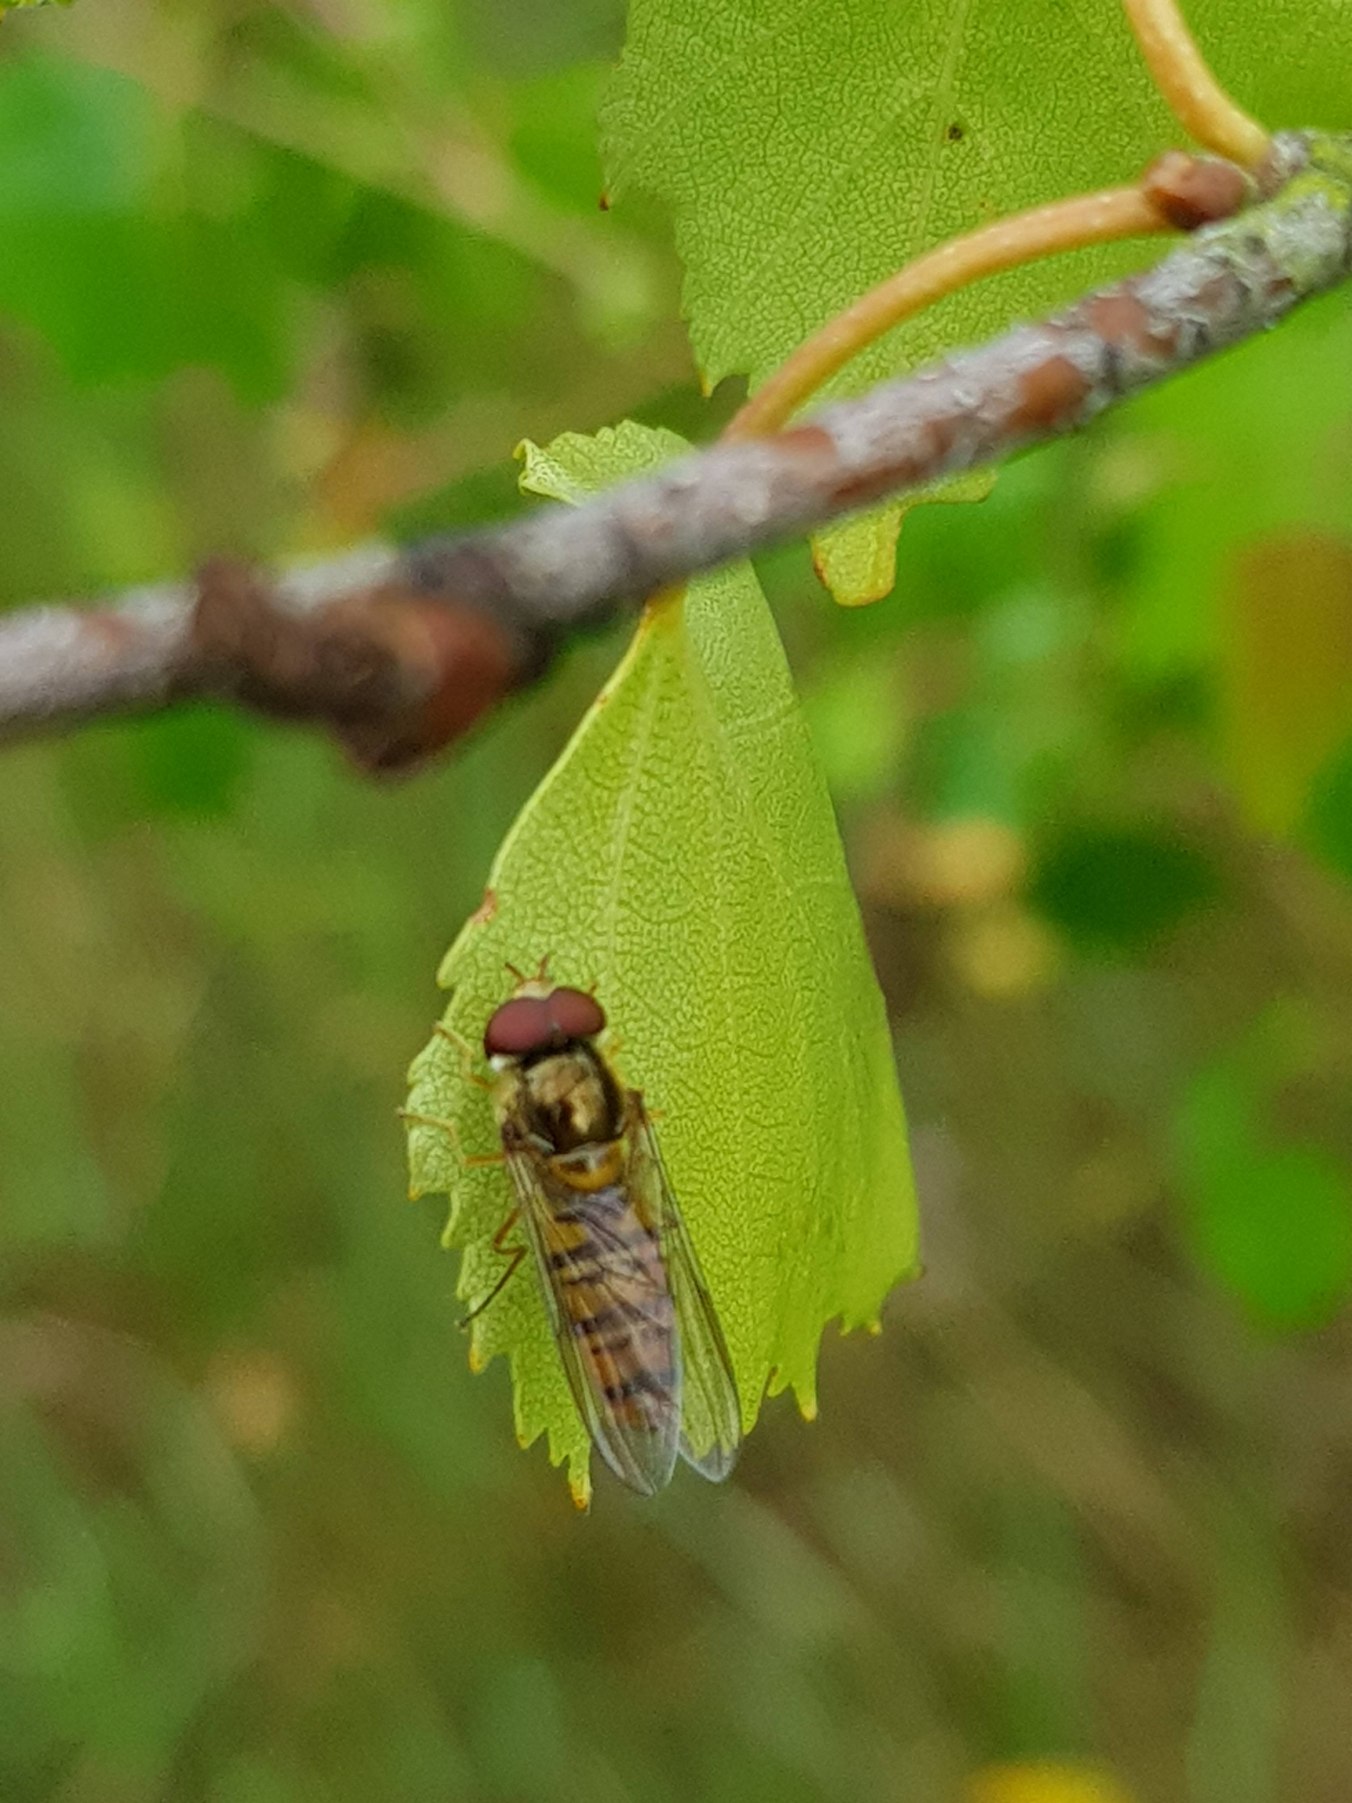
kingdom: Animalia
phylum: Arthropoda
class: Insecta
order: Diptera
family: Syrphidae
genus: Episyrphus
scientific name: Episyrphus balteatus
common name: Dobbeltbåndet svirreflue
